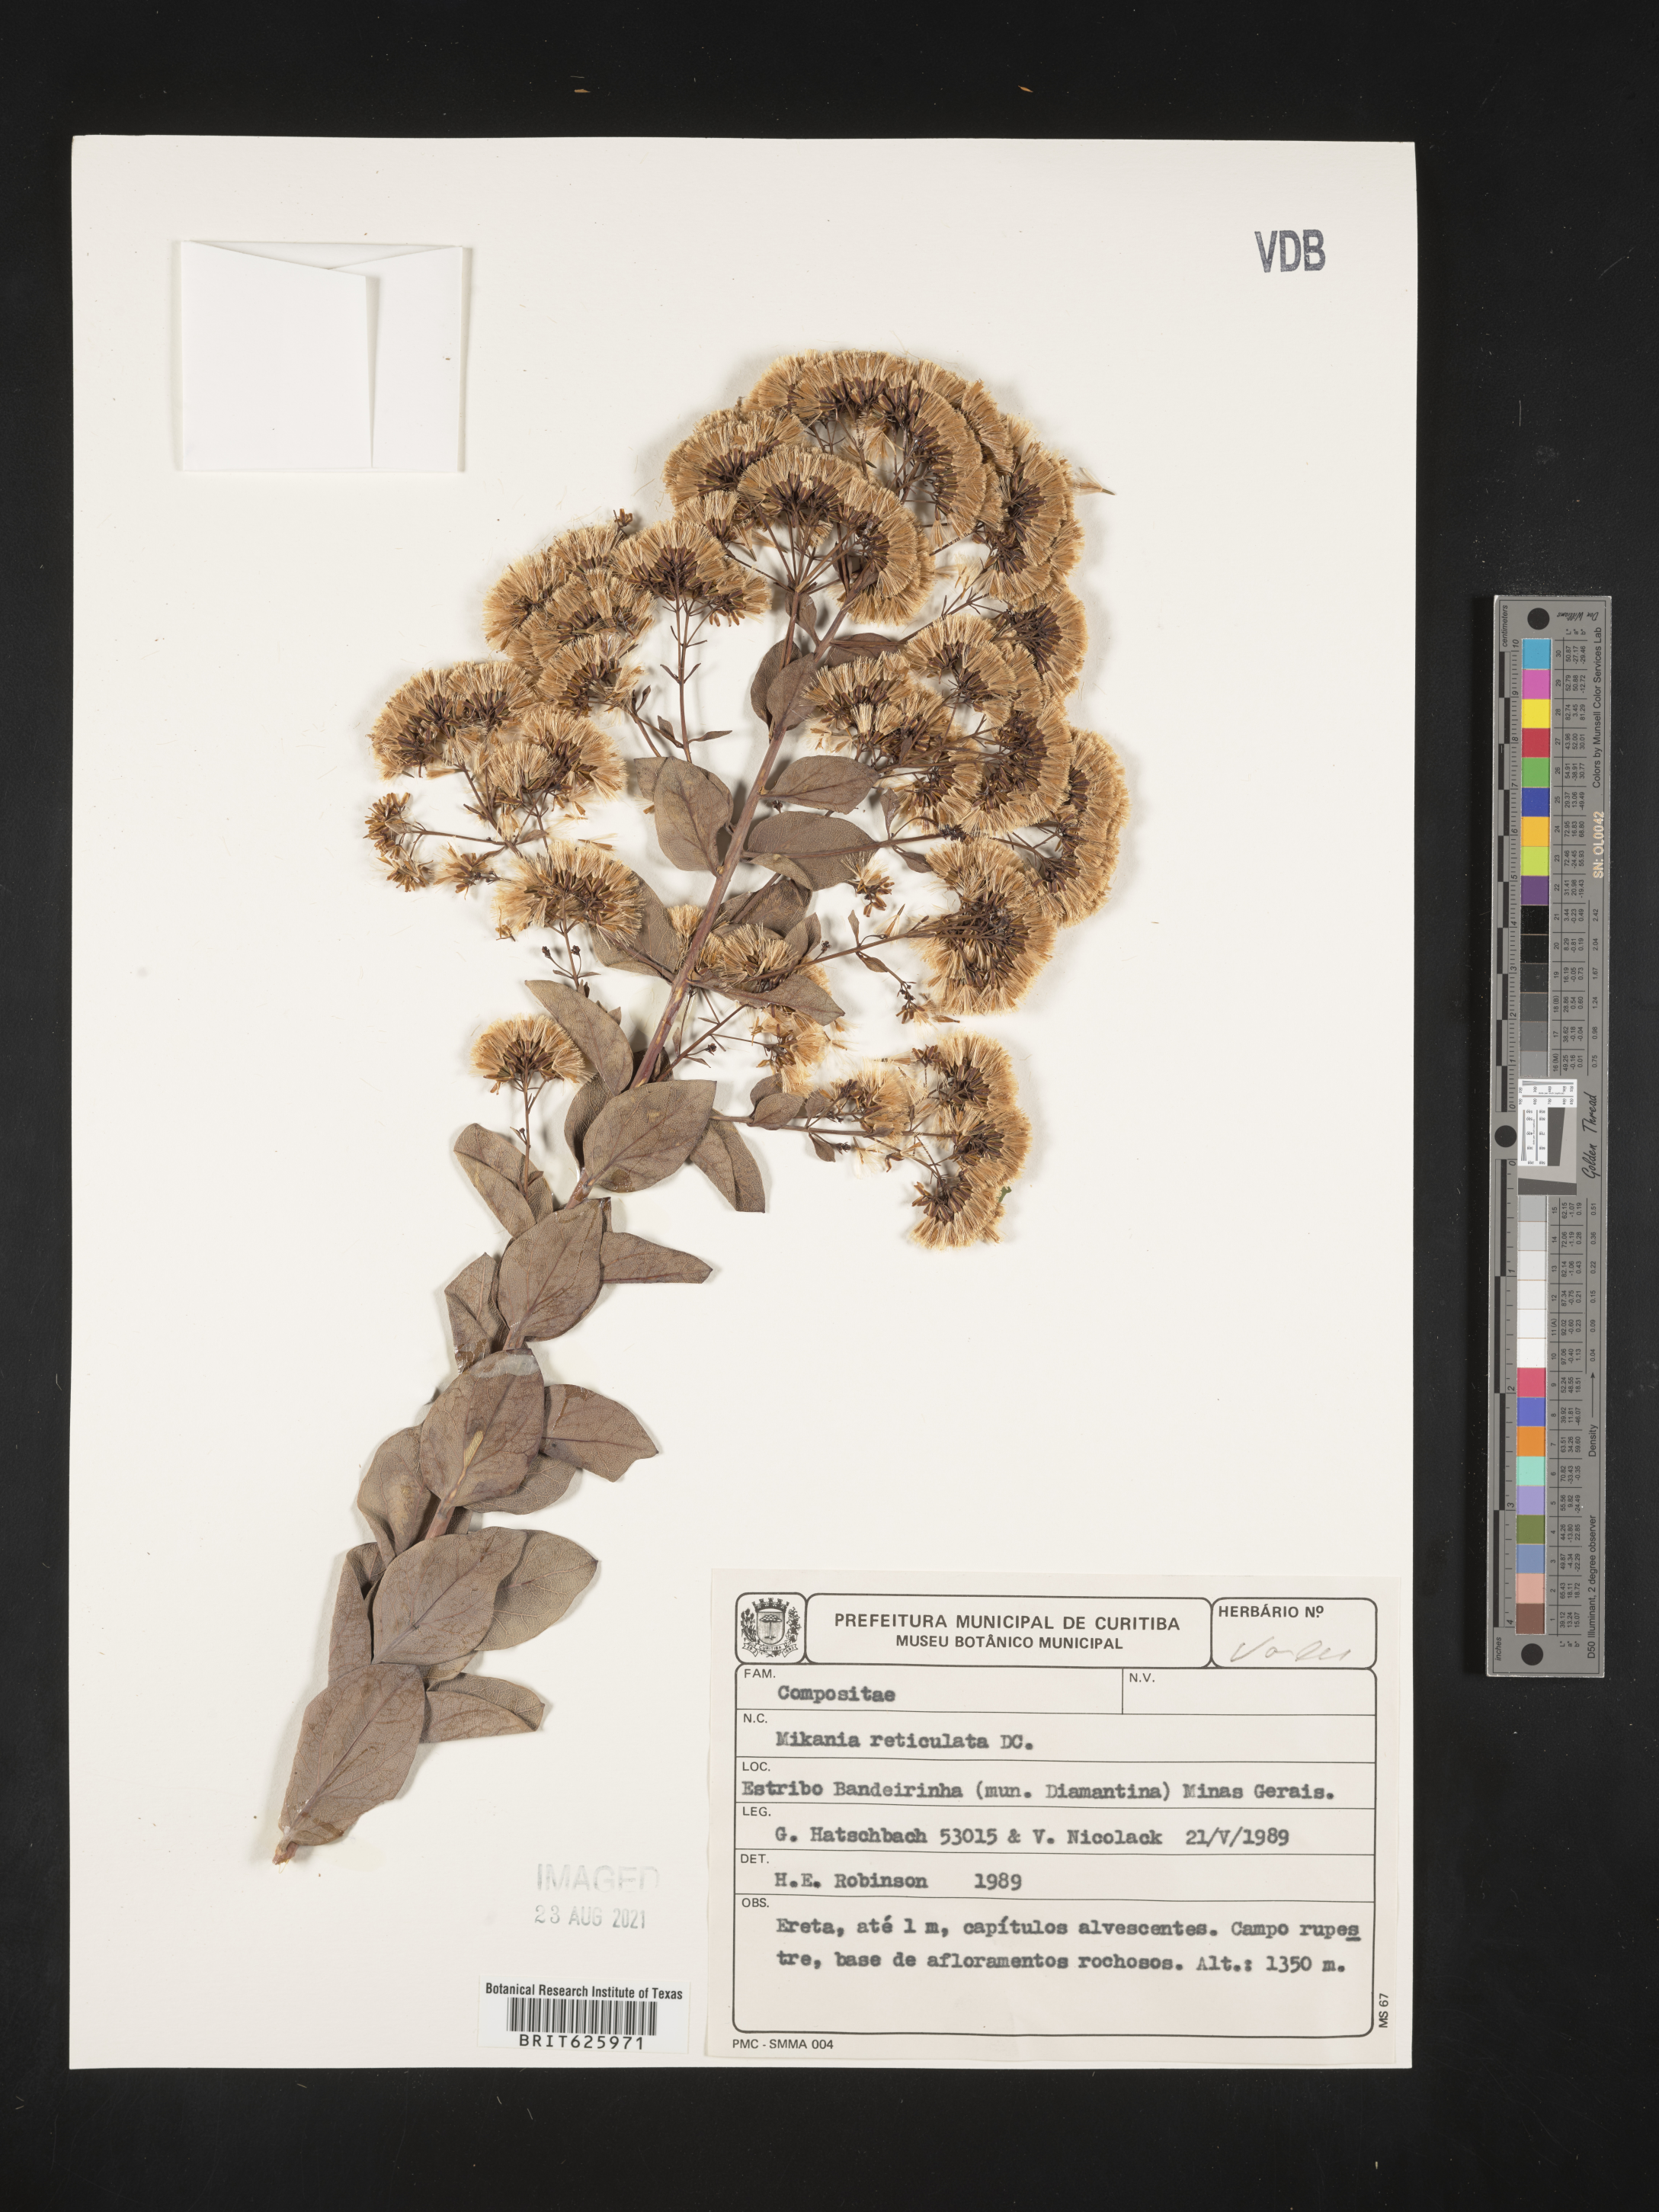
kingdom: Plantae
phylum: Tracheophyta
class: Magnoliopsida
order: Asterales
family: Asteraceae
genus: Mikania
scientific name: Mikania reticulata
